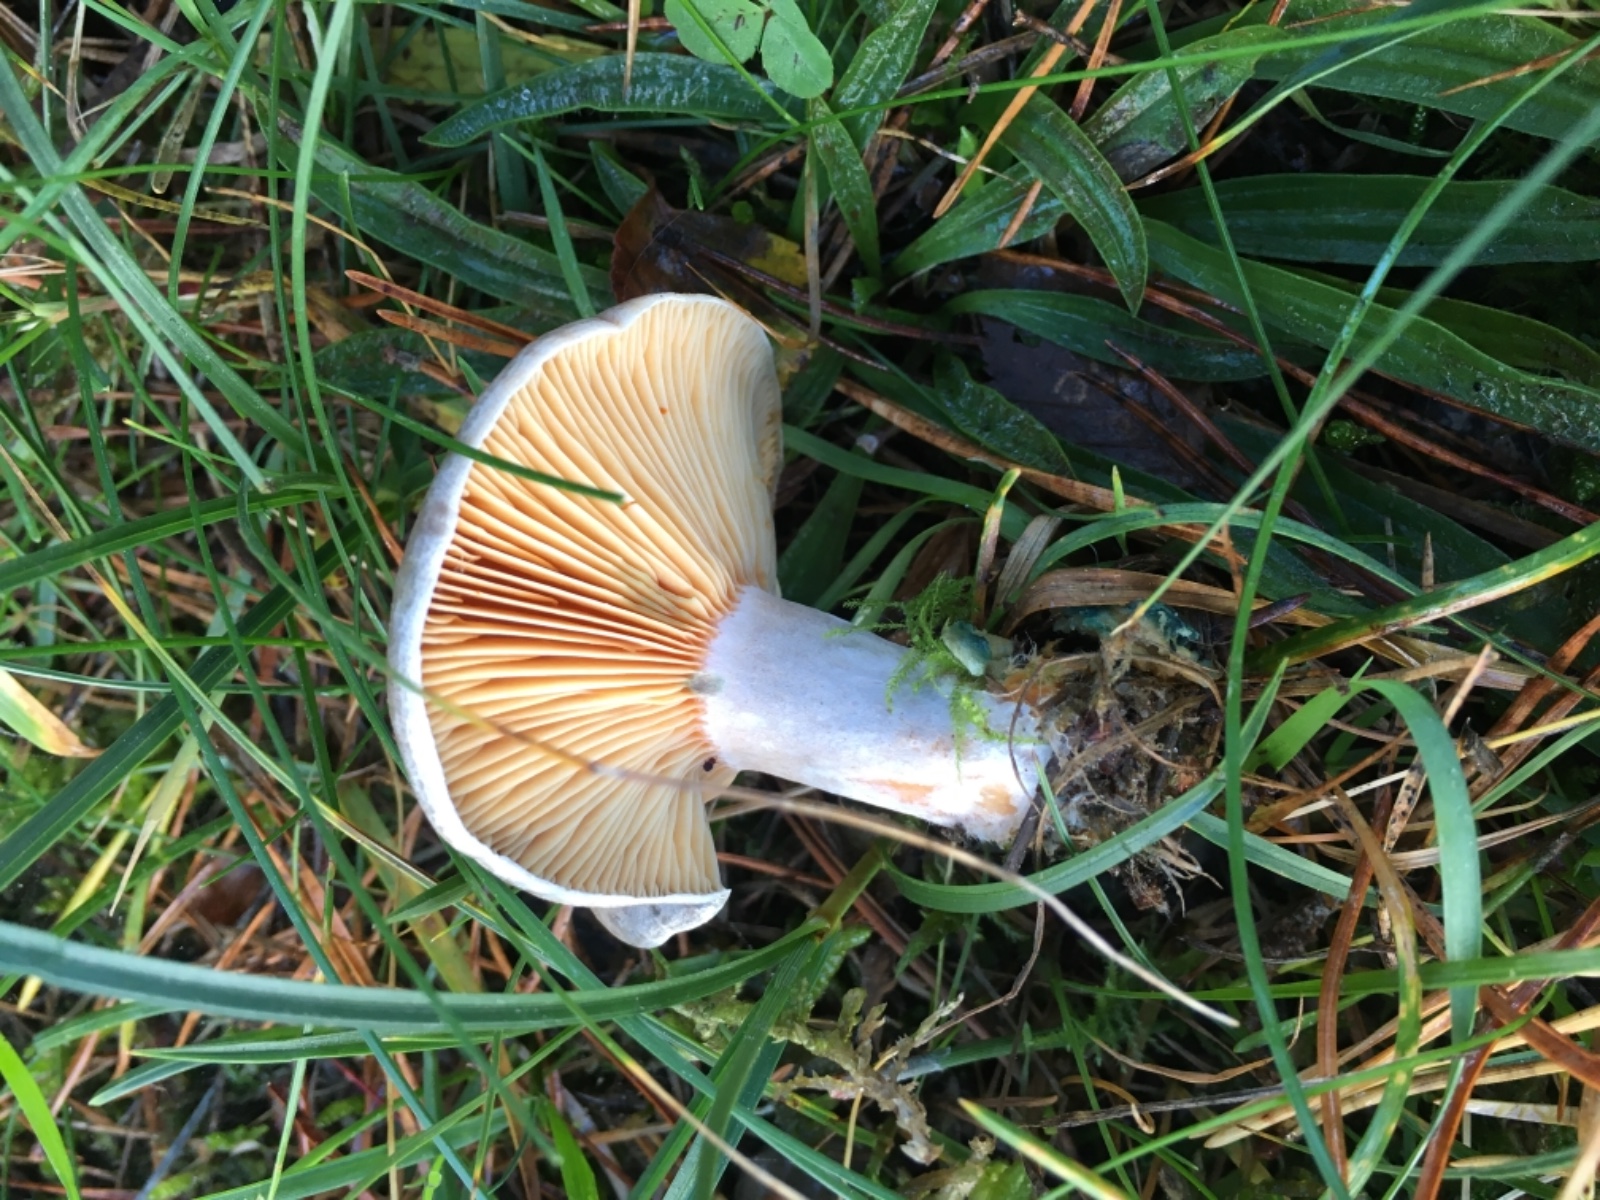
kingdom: Fungi
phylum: Basidiomycota
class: Agaricomycetes
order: Russulales
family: Russulaceae
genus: Lactarius
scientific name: Lactarius quieticolor
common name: tvefarvet mælkehat
